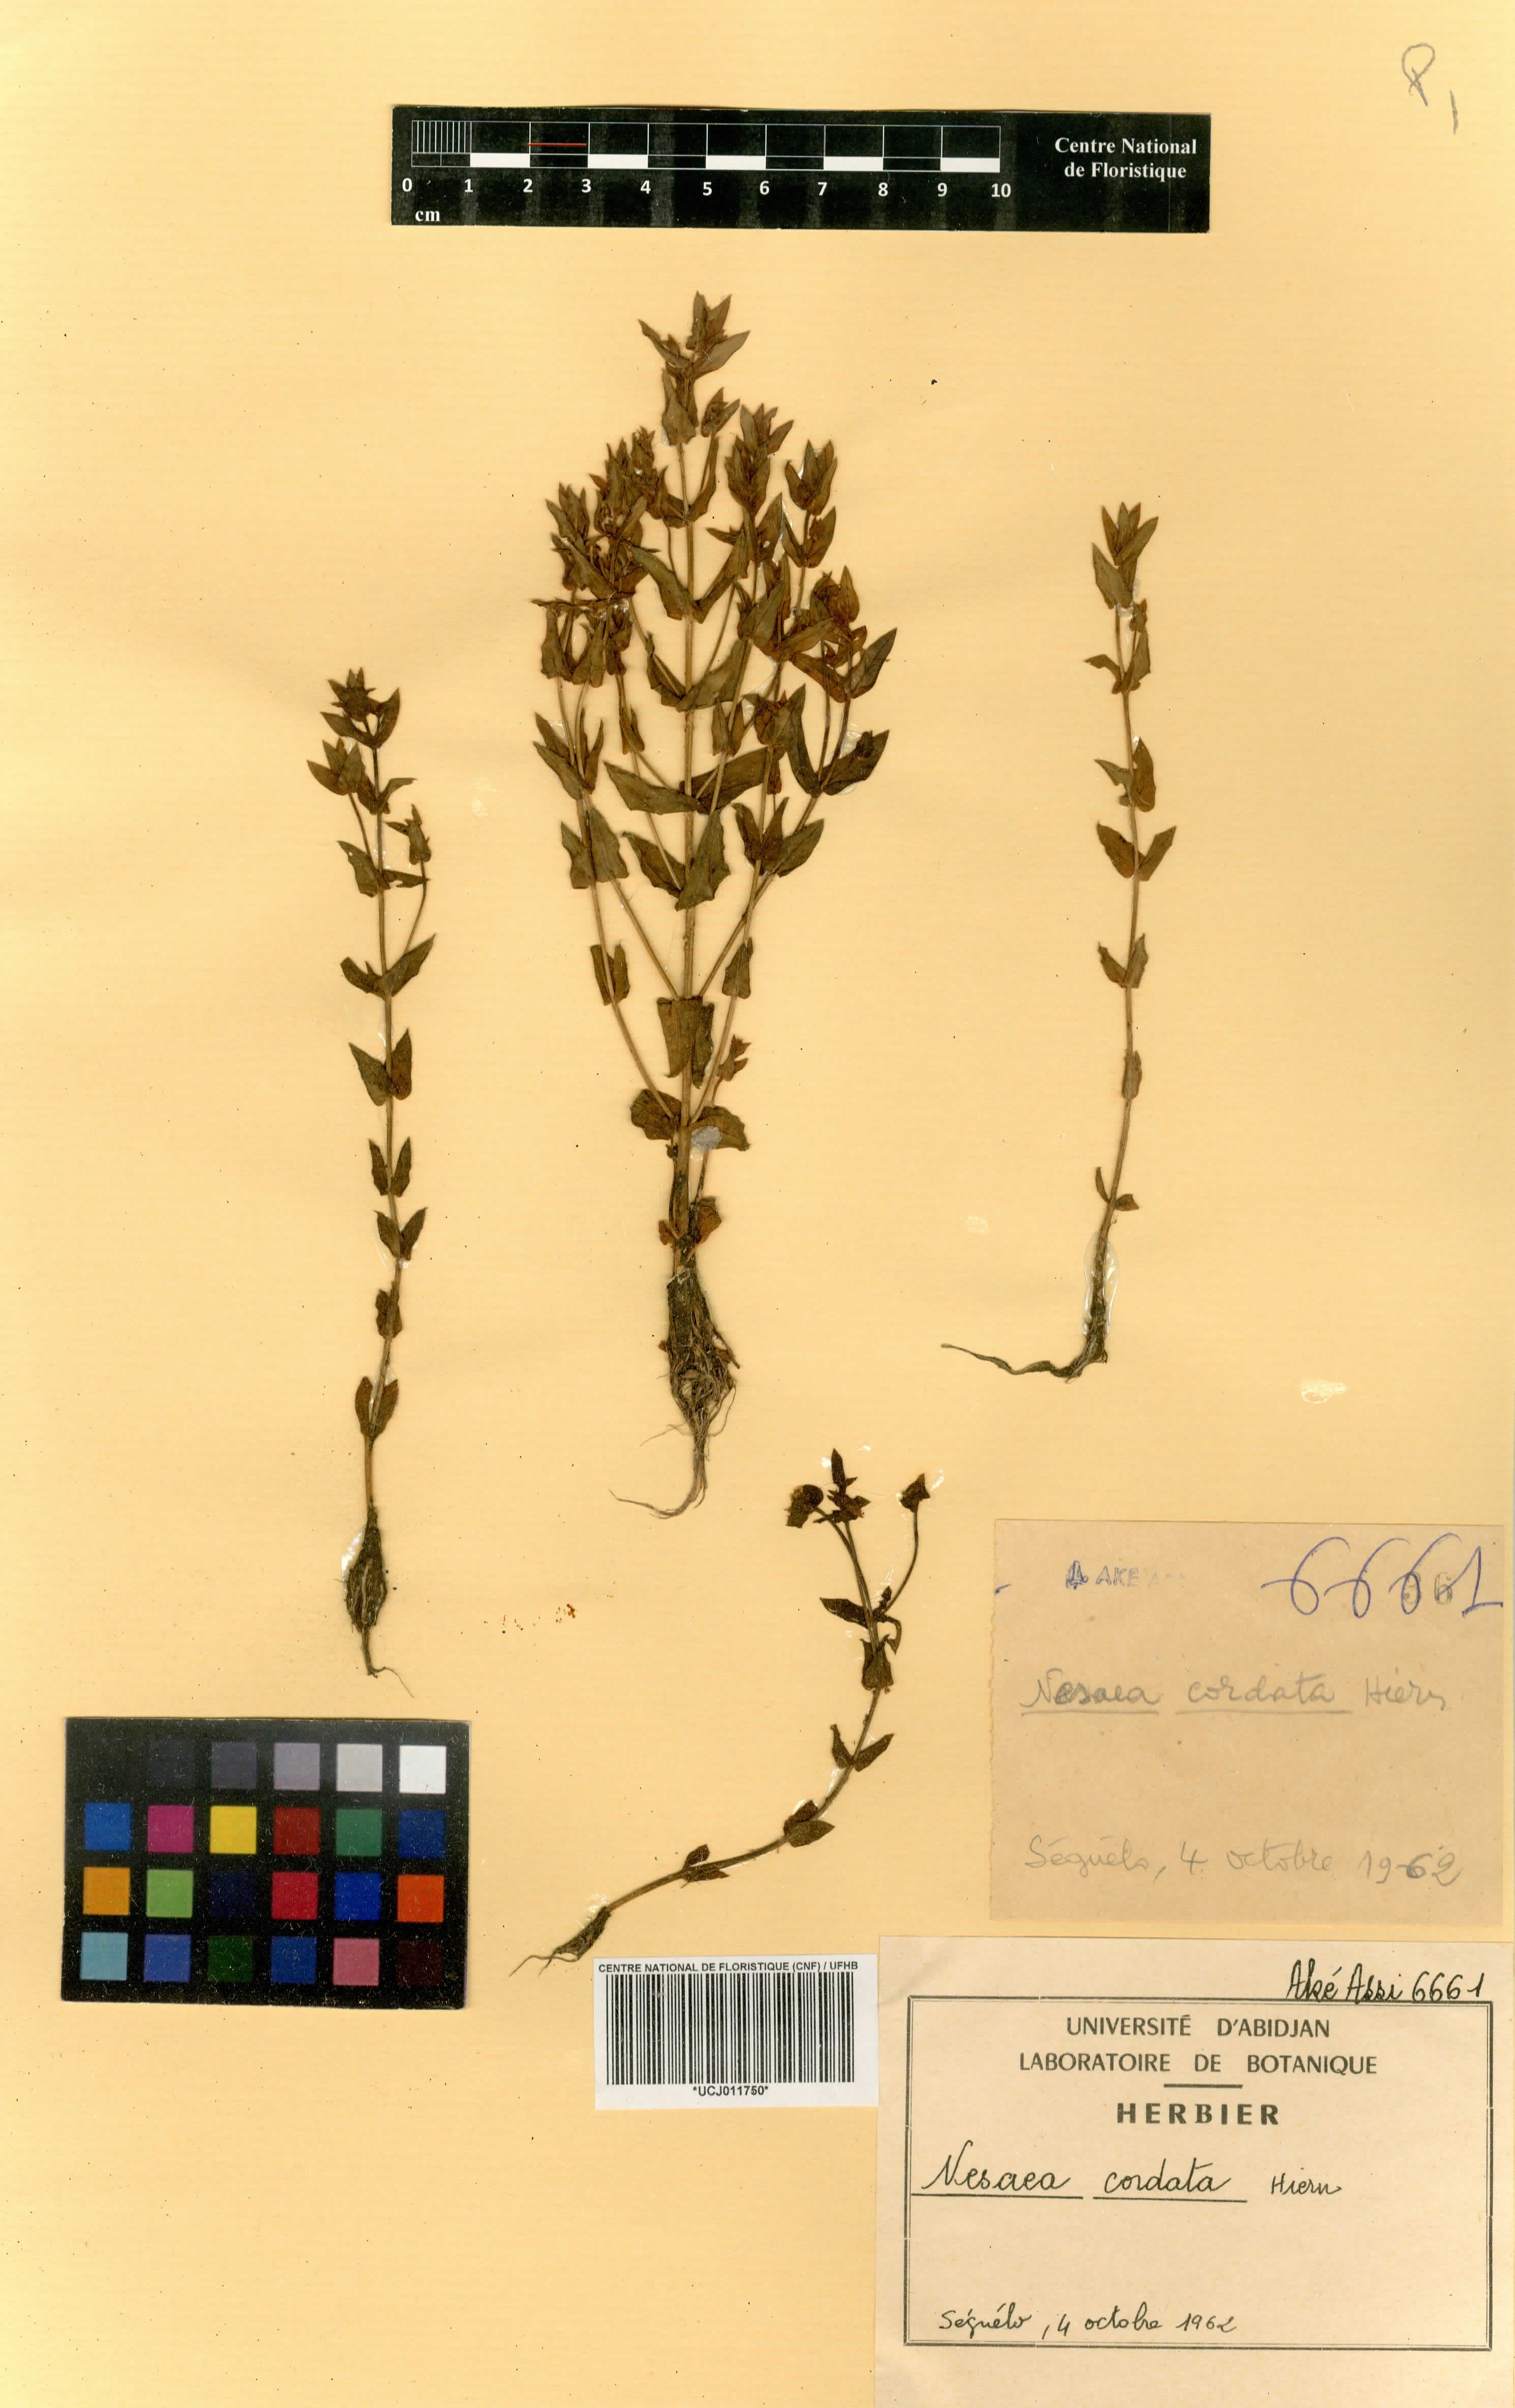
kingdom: Plantae
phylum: Tracheophyta
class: Magnoliopsida
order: Myrtales
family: Lythraceae
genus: Ammannia
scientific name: Ammannia involucrata
